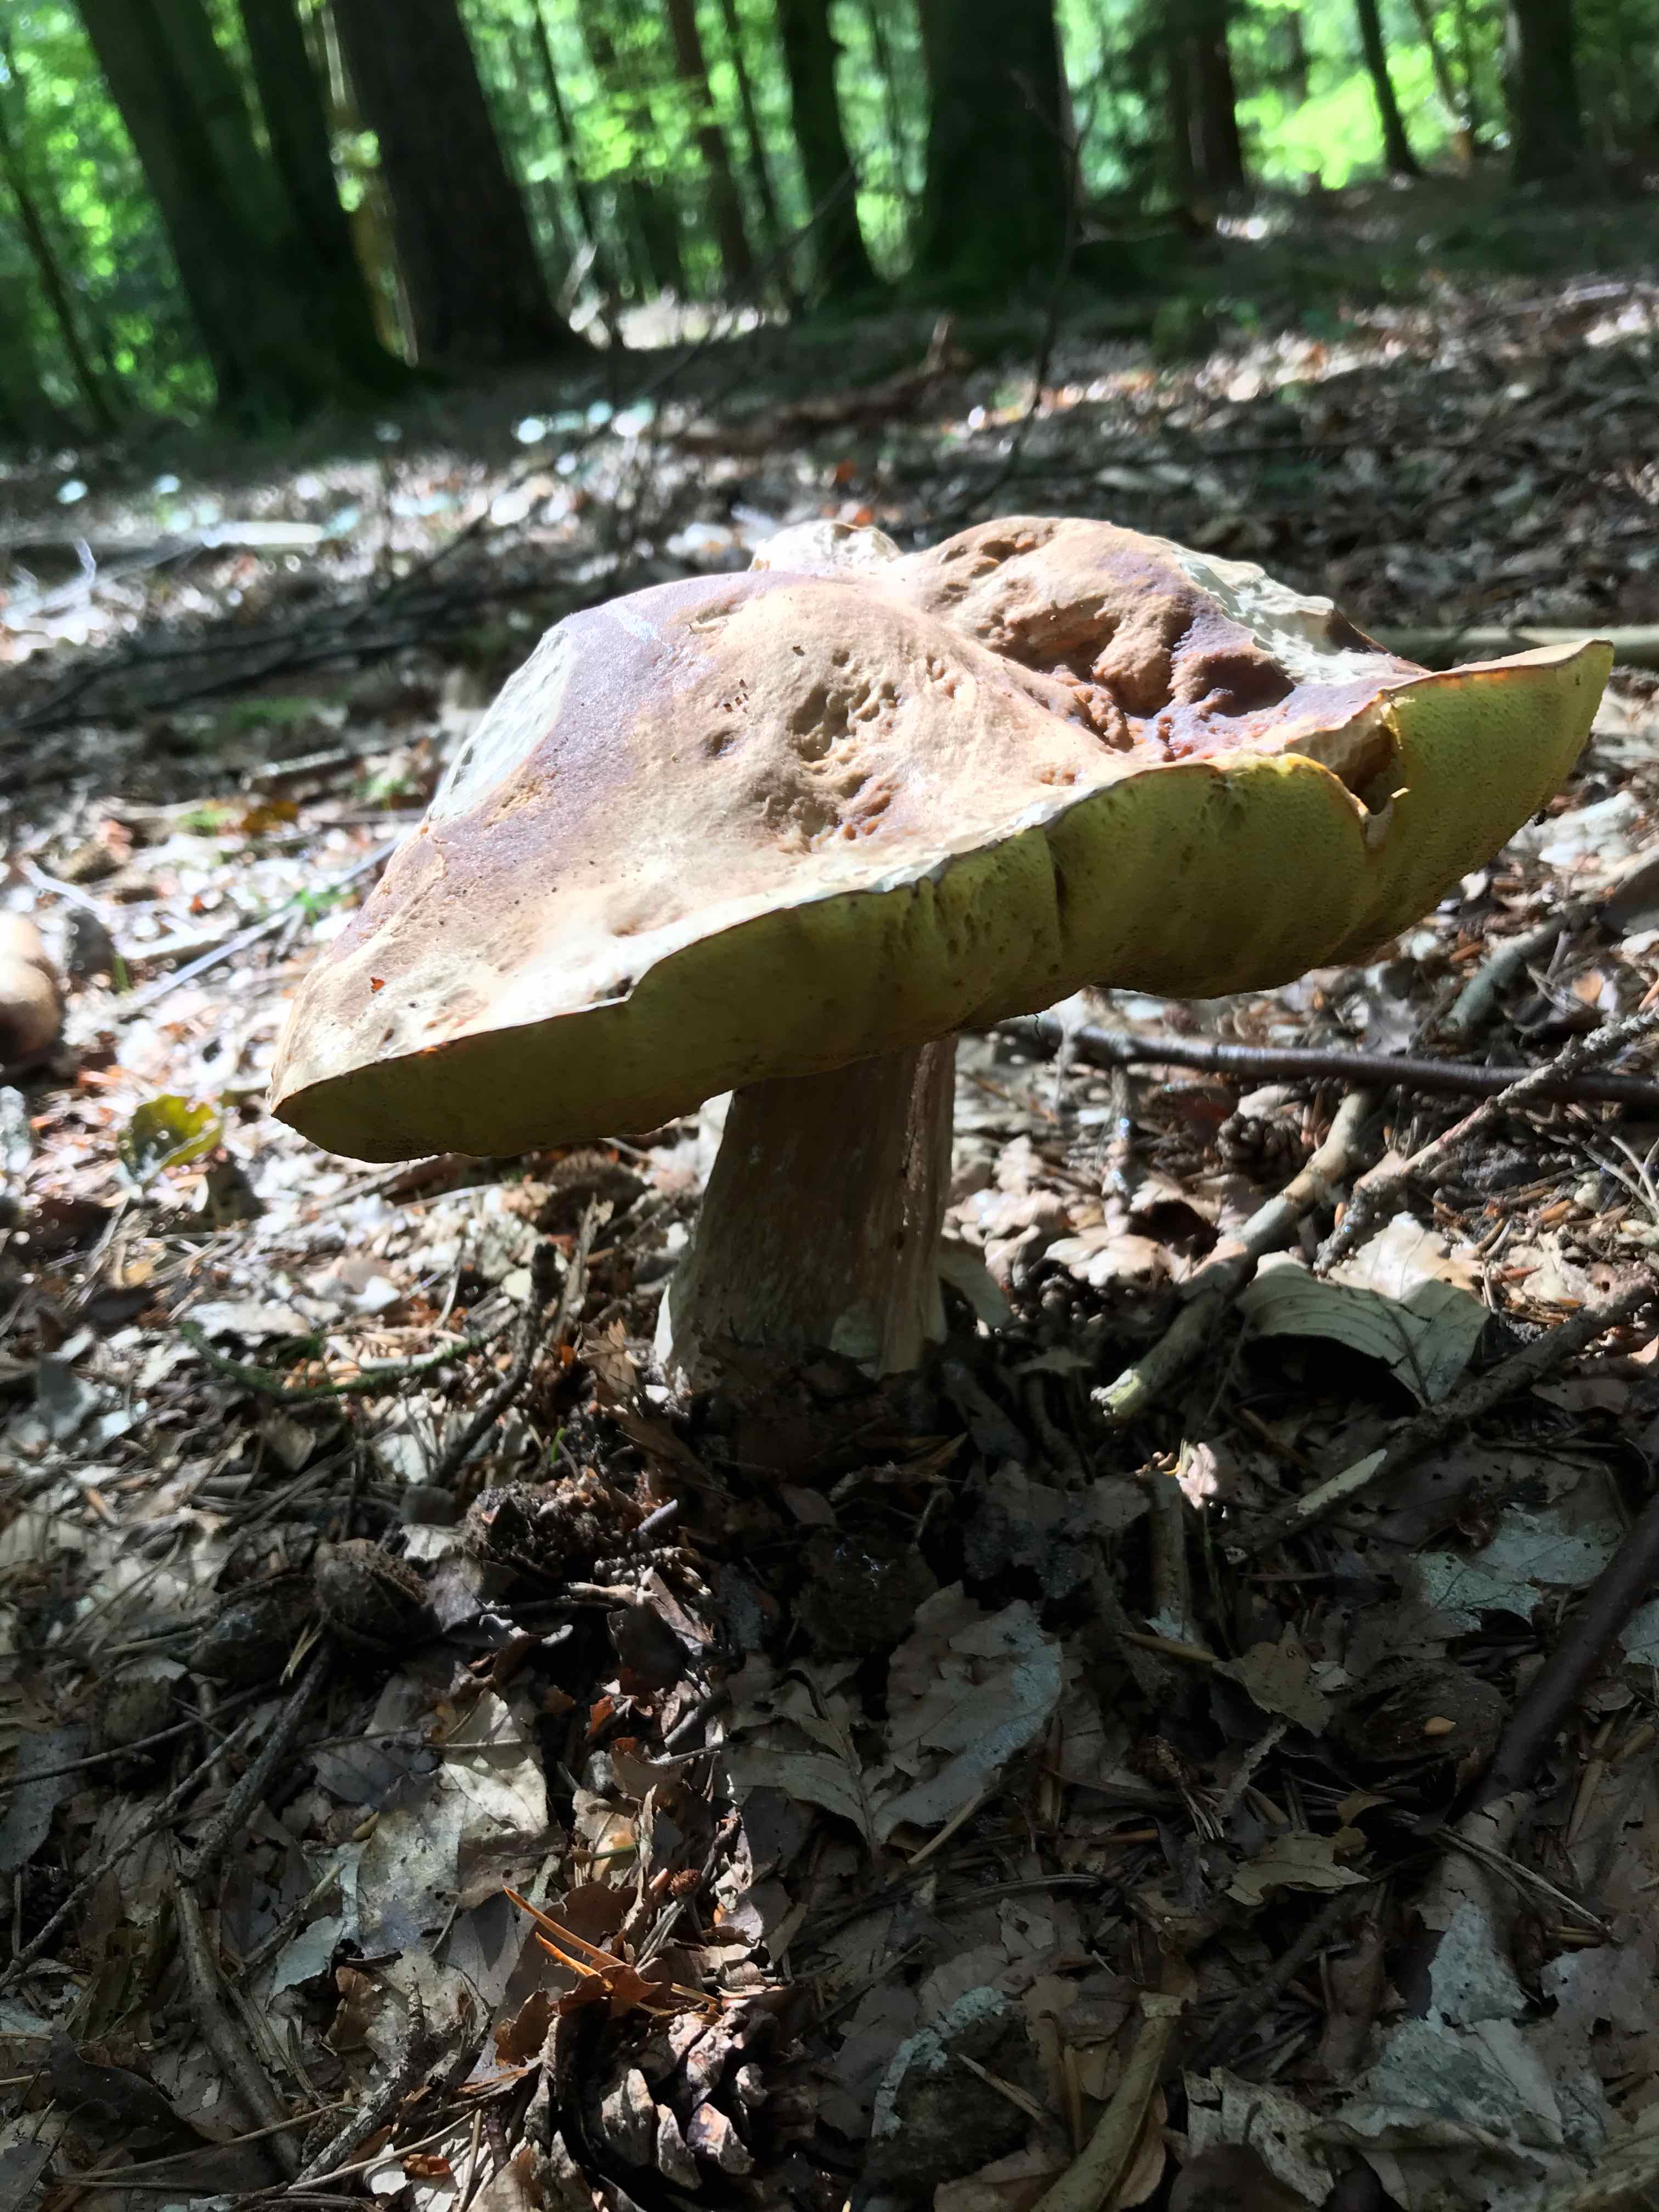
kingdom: Fungi
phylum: Basidiomycota
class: Agaricomycetes
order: Boletales
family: Boletaceae
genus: Boletus
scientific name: Boletus edulis
